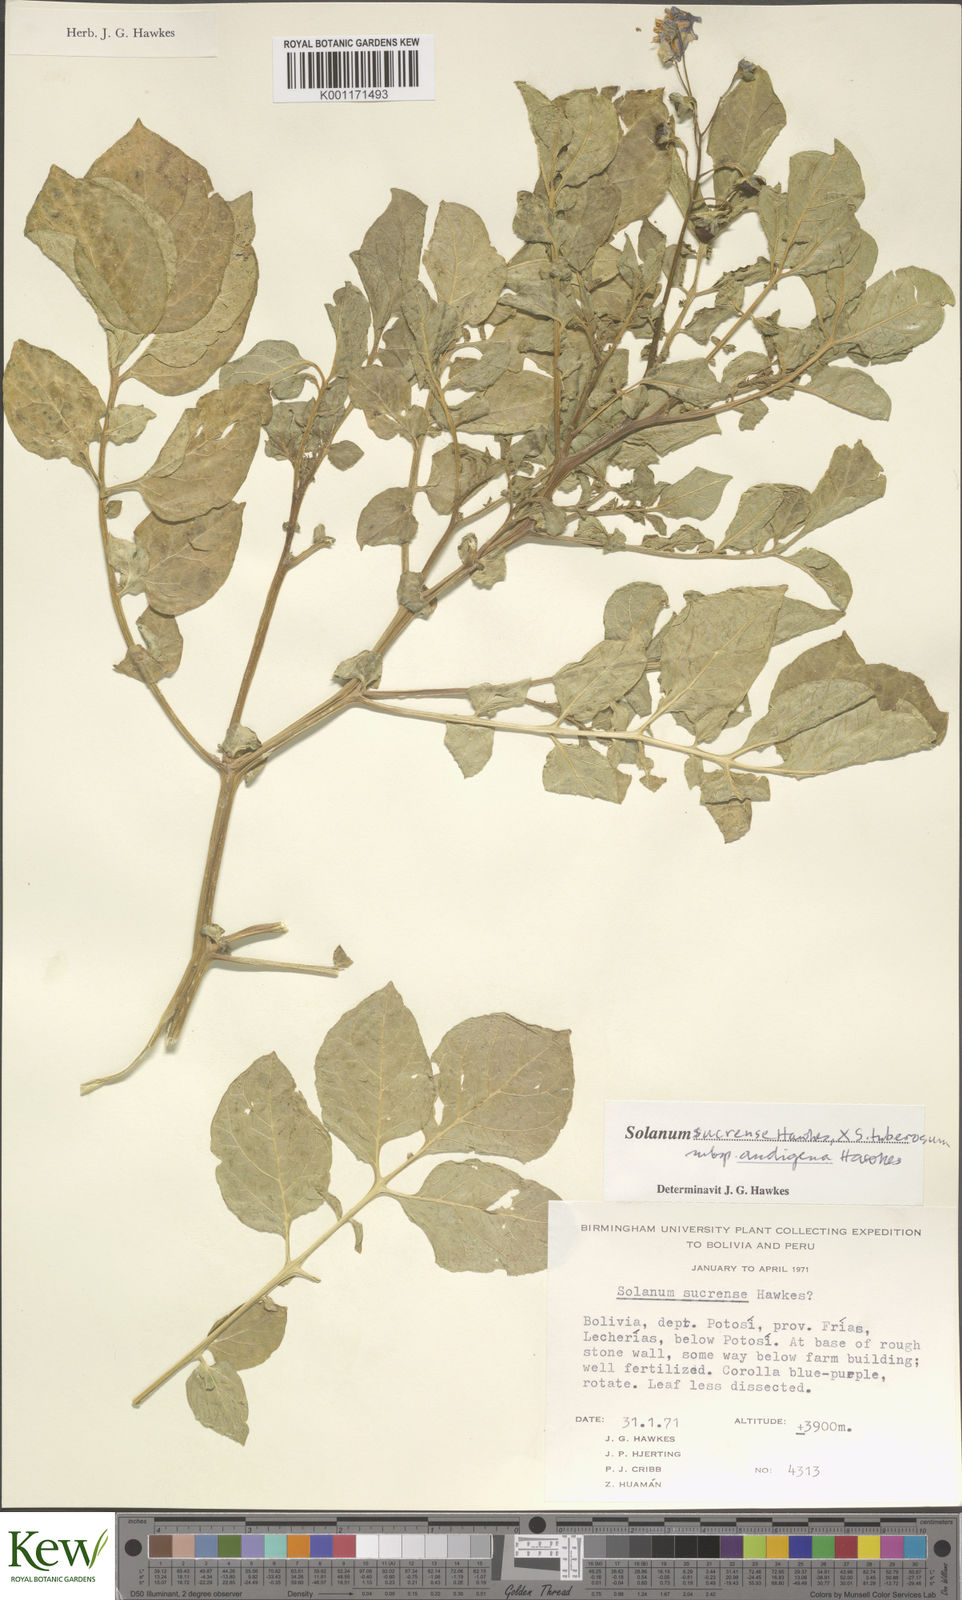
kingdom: Plantae
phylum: Tracheophyta
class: Magnoliopsida
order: Solanales
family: Solanaceae
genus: Solanum
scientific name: Solanum tuberosum
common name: Potato
